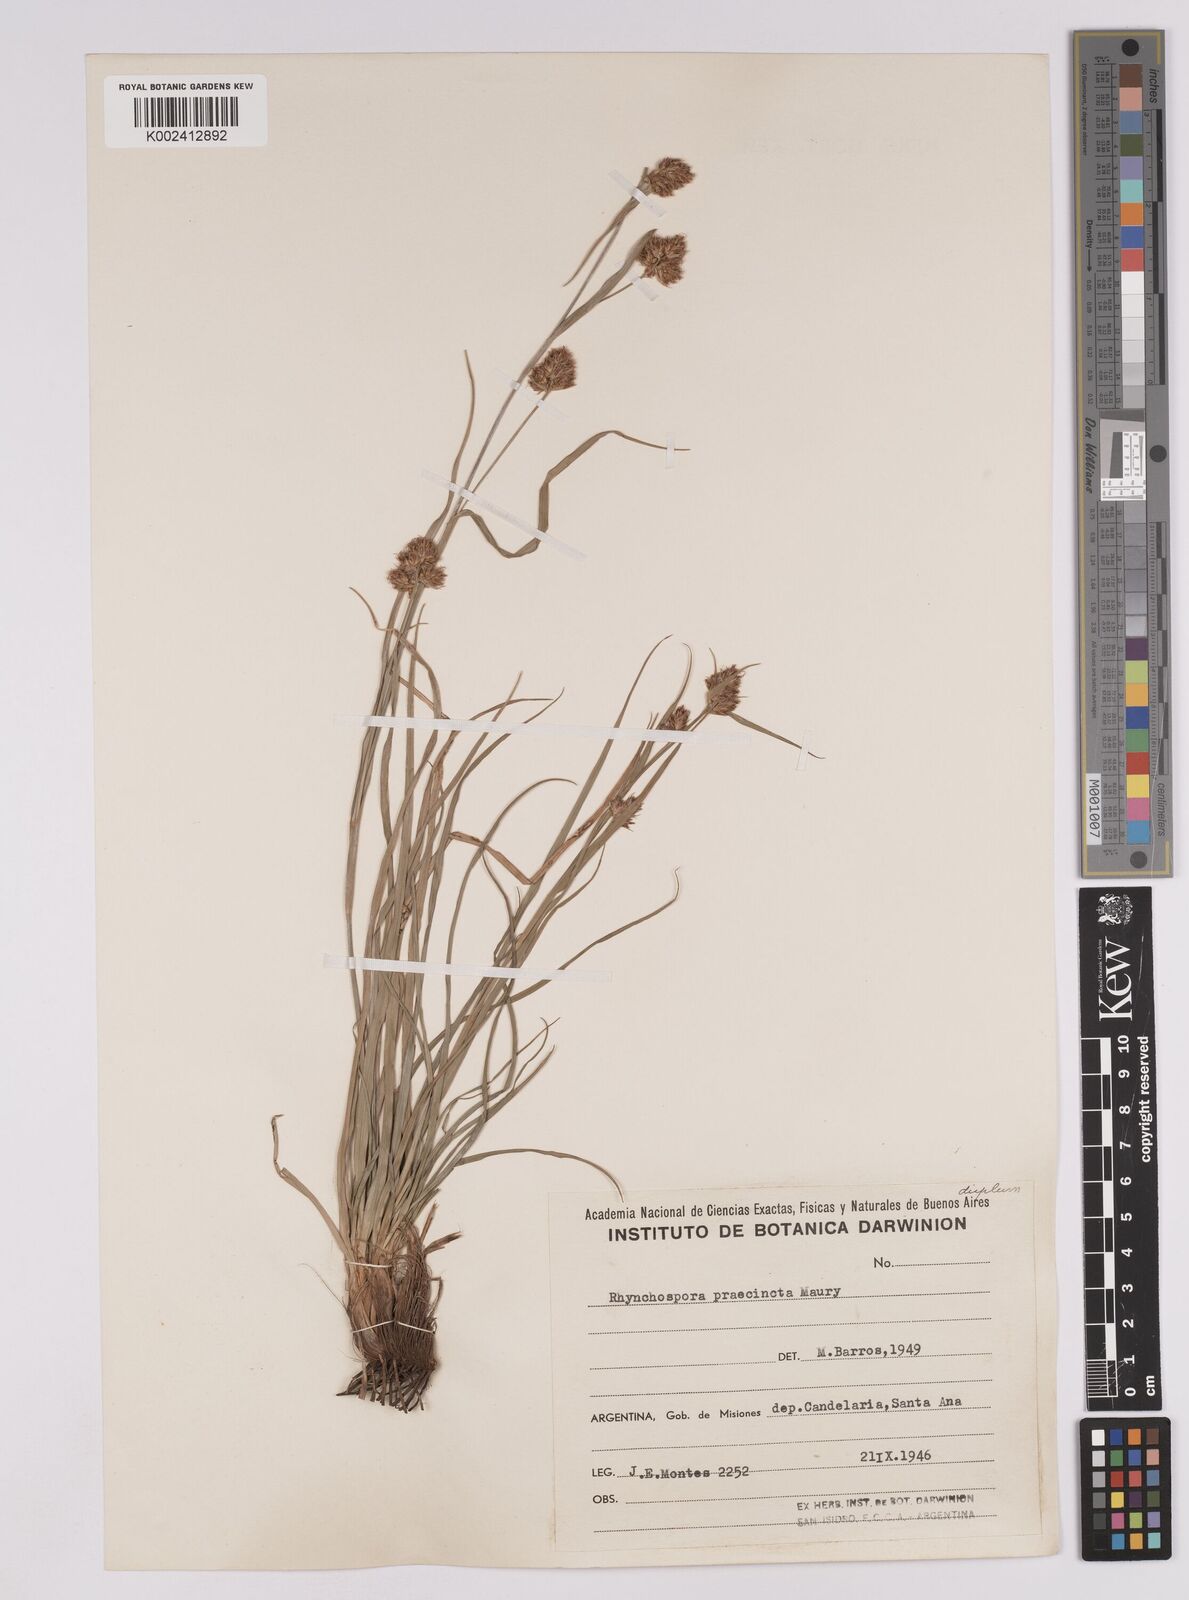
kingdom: Plantae
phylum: Tracheophyta
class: Liliopsida
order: Poales
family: Cyperaceae
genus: Rhynchospora
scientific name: Rhynchospora praecincta
